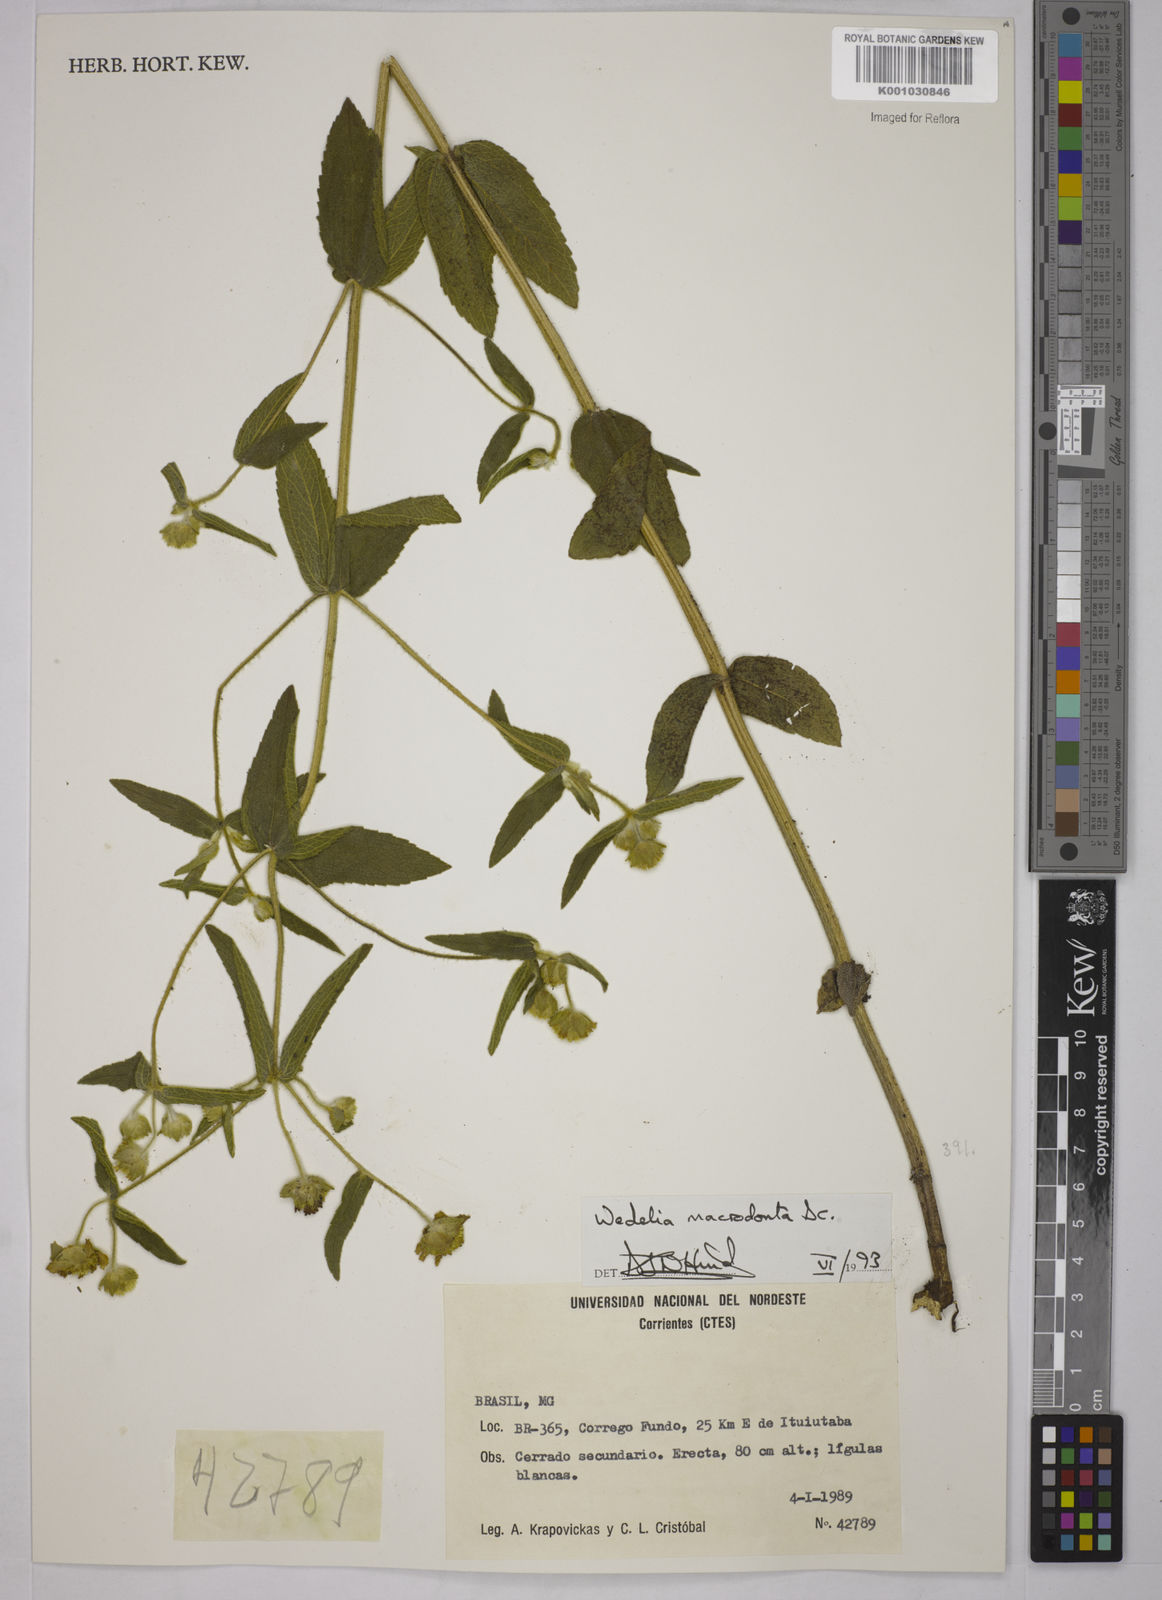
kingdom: Plantae
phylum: Tracheophyta
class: Magnoliopsida
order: Asterales
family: Asteraceae
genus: Wedelia
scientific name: Wedelia macrodonta
